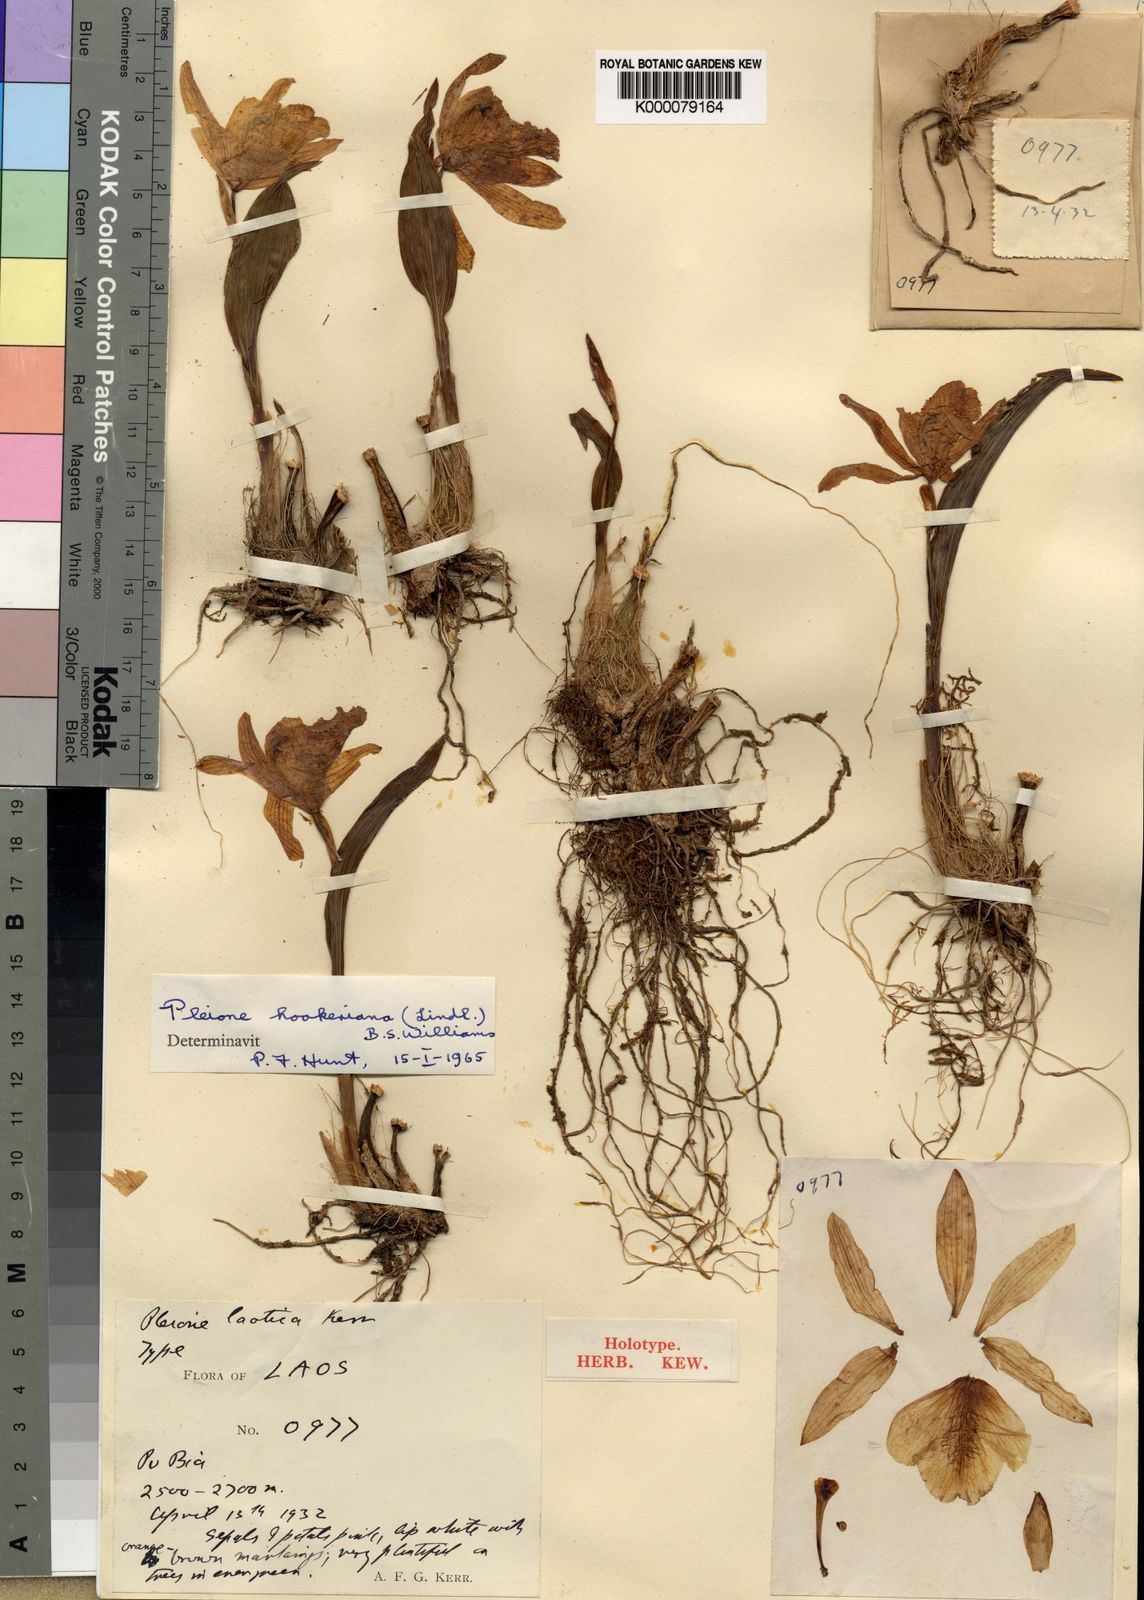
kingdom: Plantae
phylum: Tracheophyta
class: Liliopsida
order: Asparagales
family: Orchidaceae
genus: Pleione
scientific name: Pleione hookeriana
